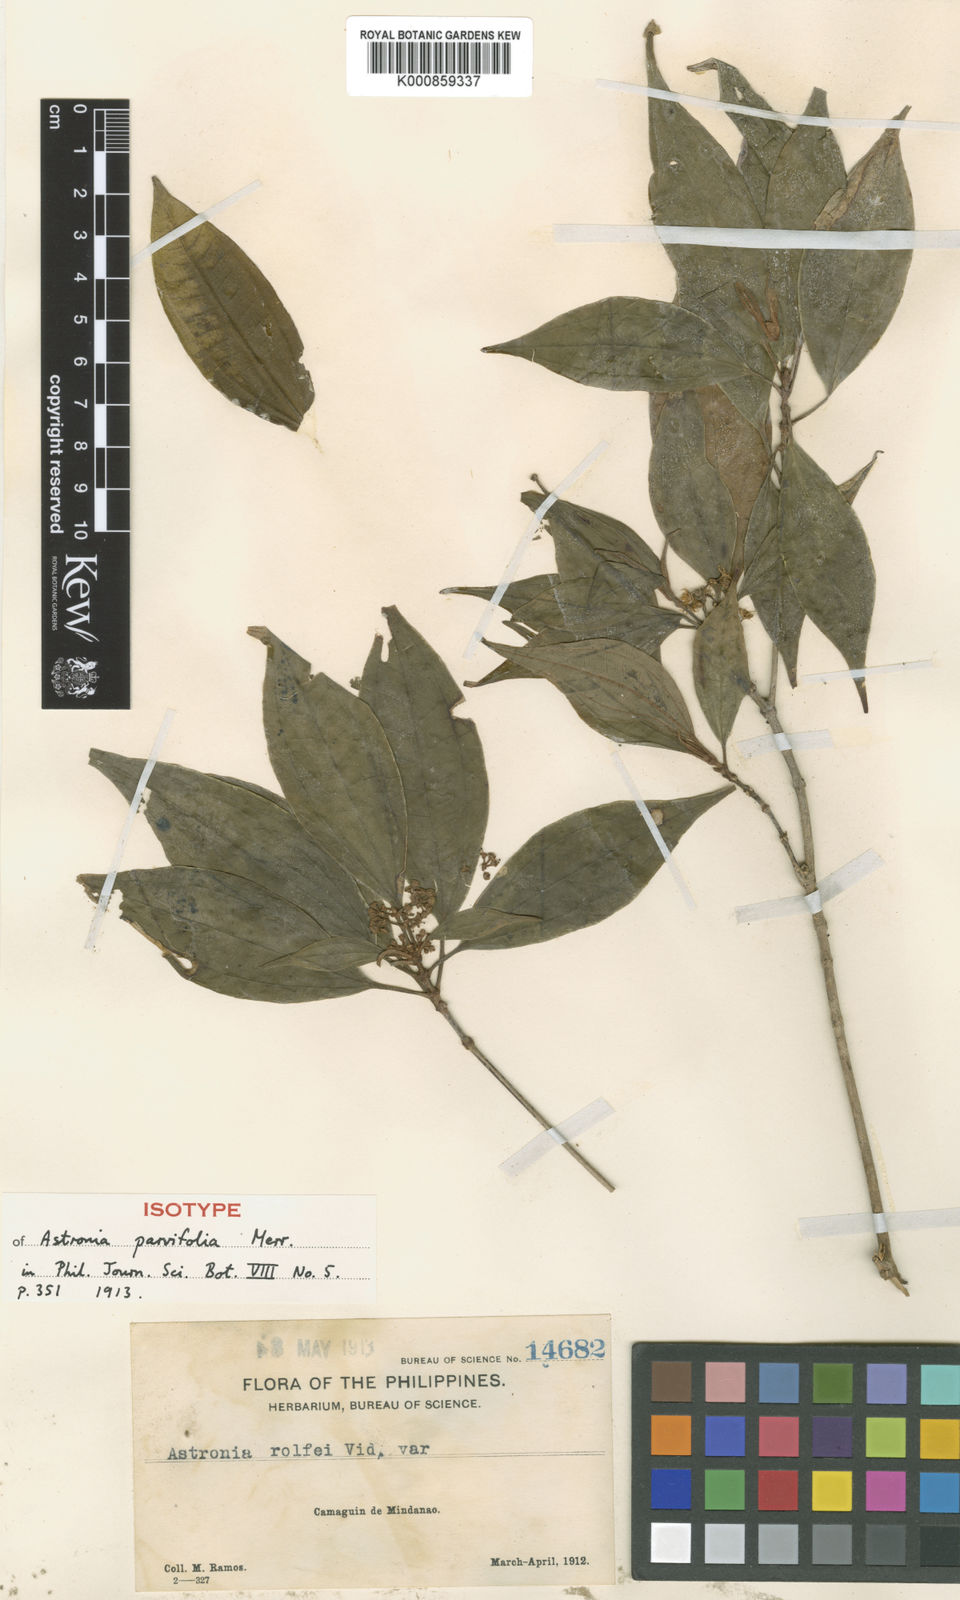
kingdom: Plantae
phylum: Tracheophyta
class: Magnoliopsida
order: Myrtales
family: Melastomataceae
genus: Astronia
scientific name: Astronia acuminatissima
